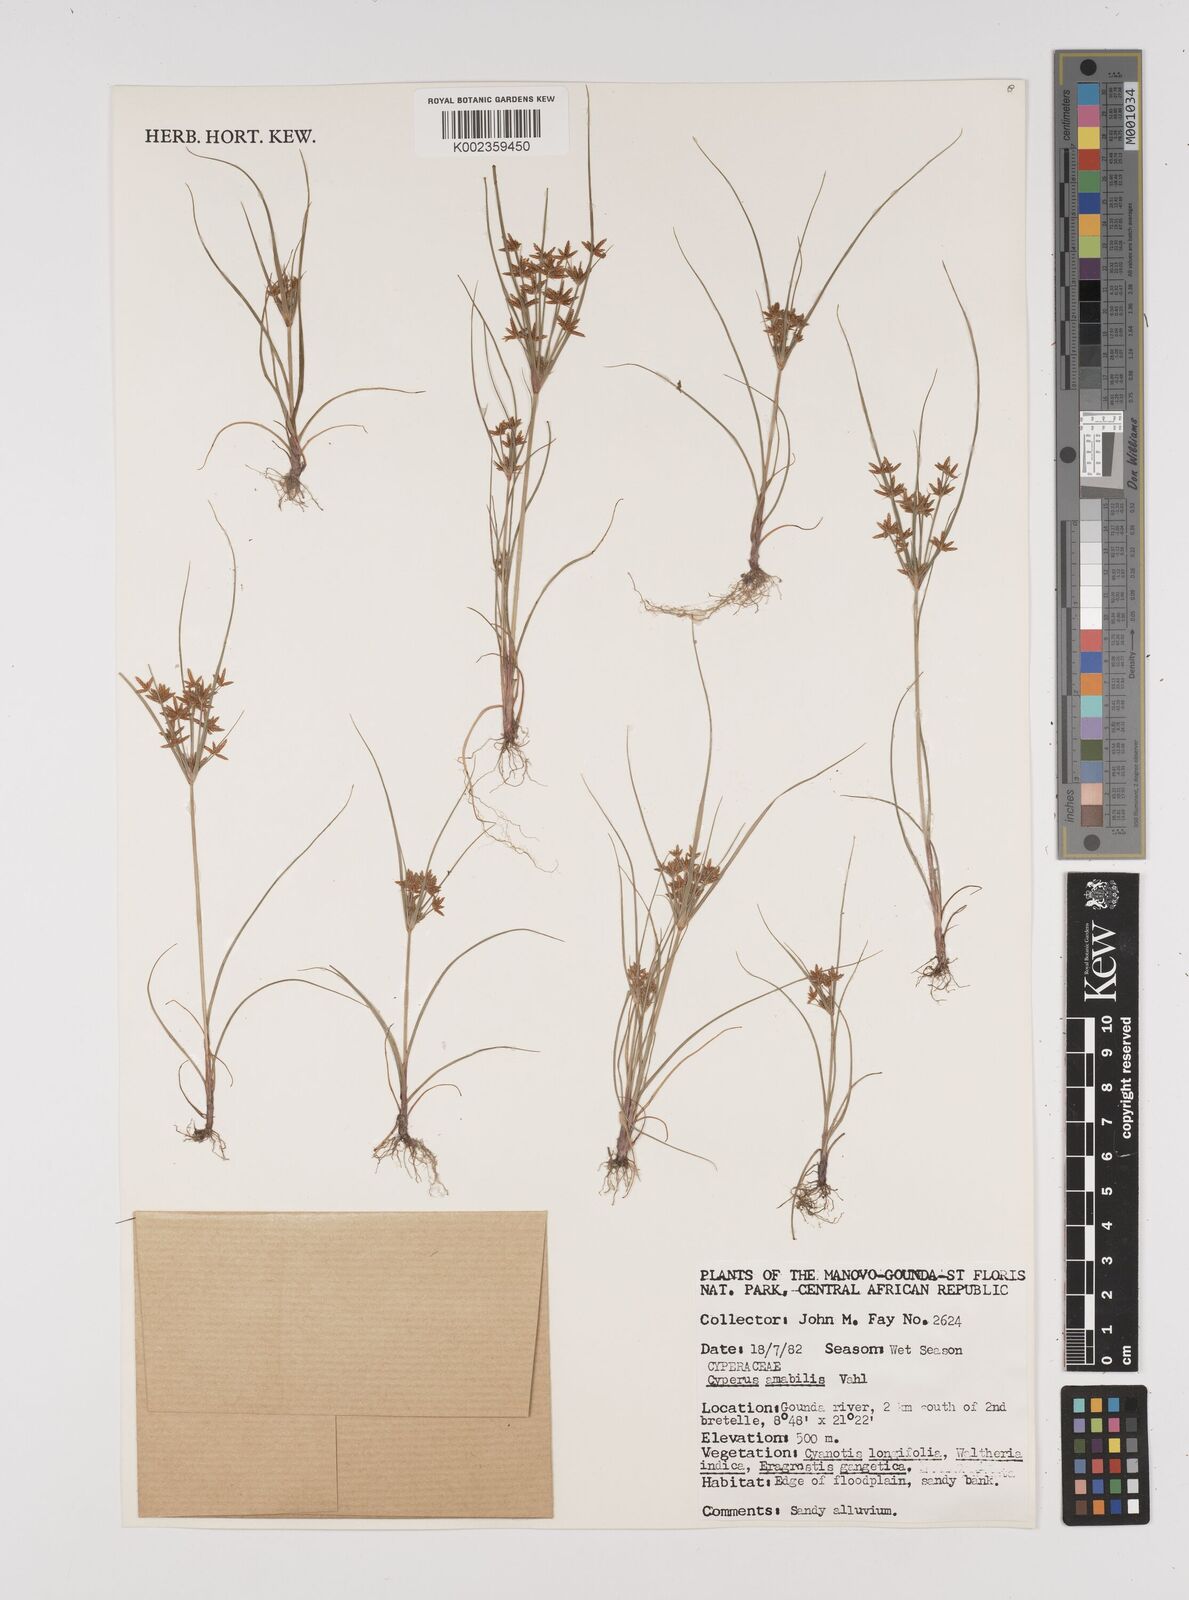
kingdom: Plantae
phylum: Tracheophyta
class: Liliopsida
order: Poales
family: Cyperaceae
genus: Cyperus
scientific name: Cyperus amabilis
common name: Foothill flat sedge
